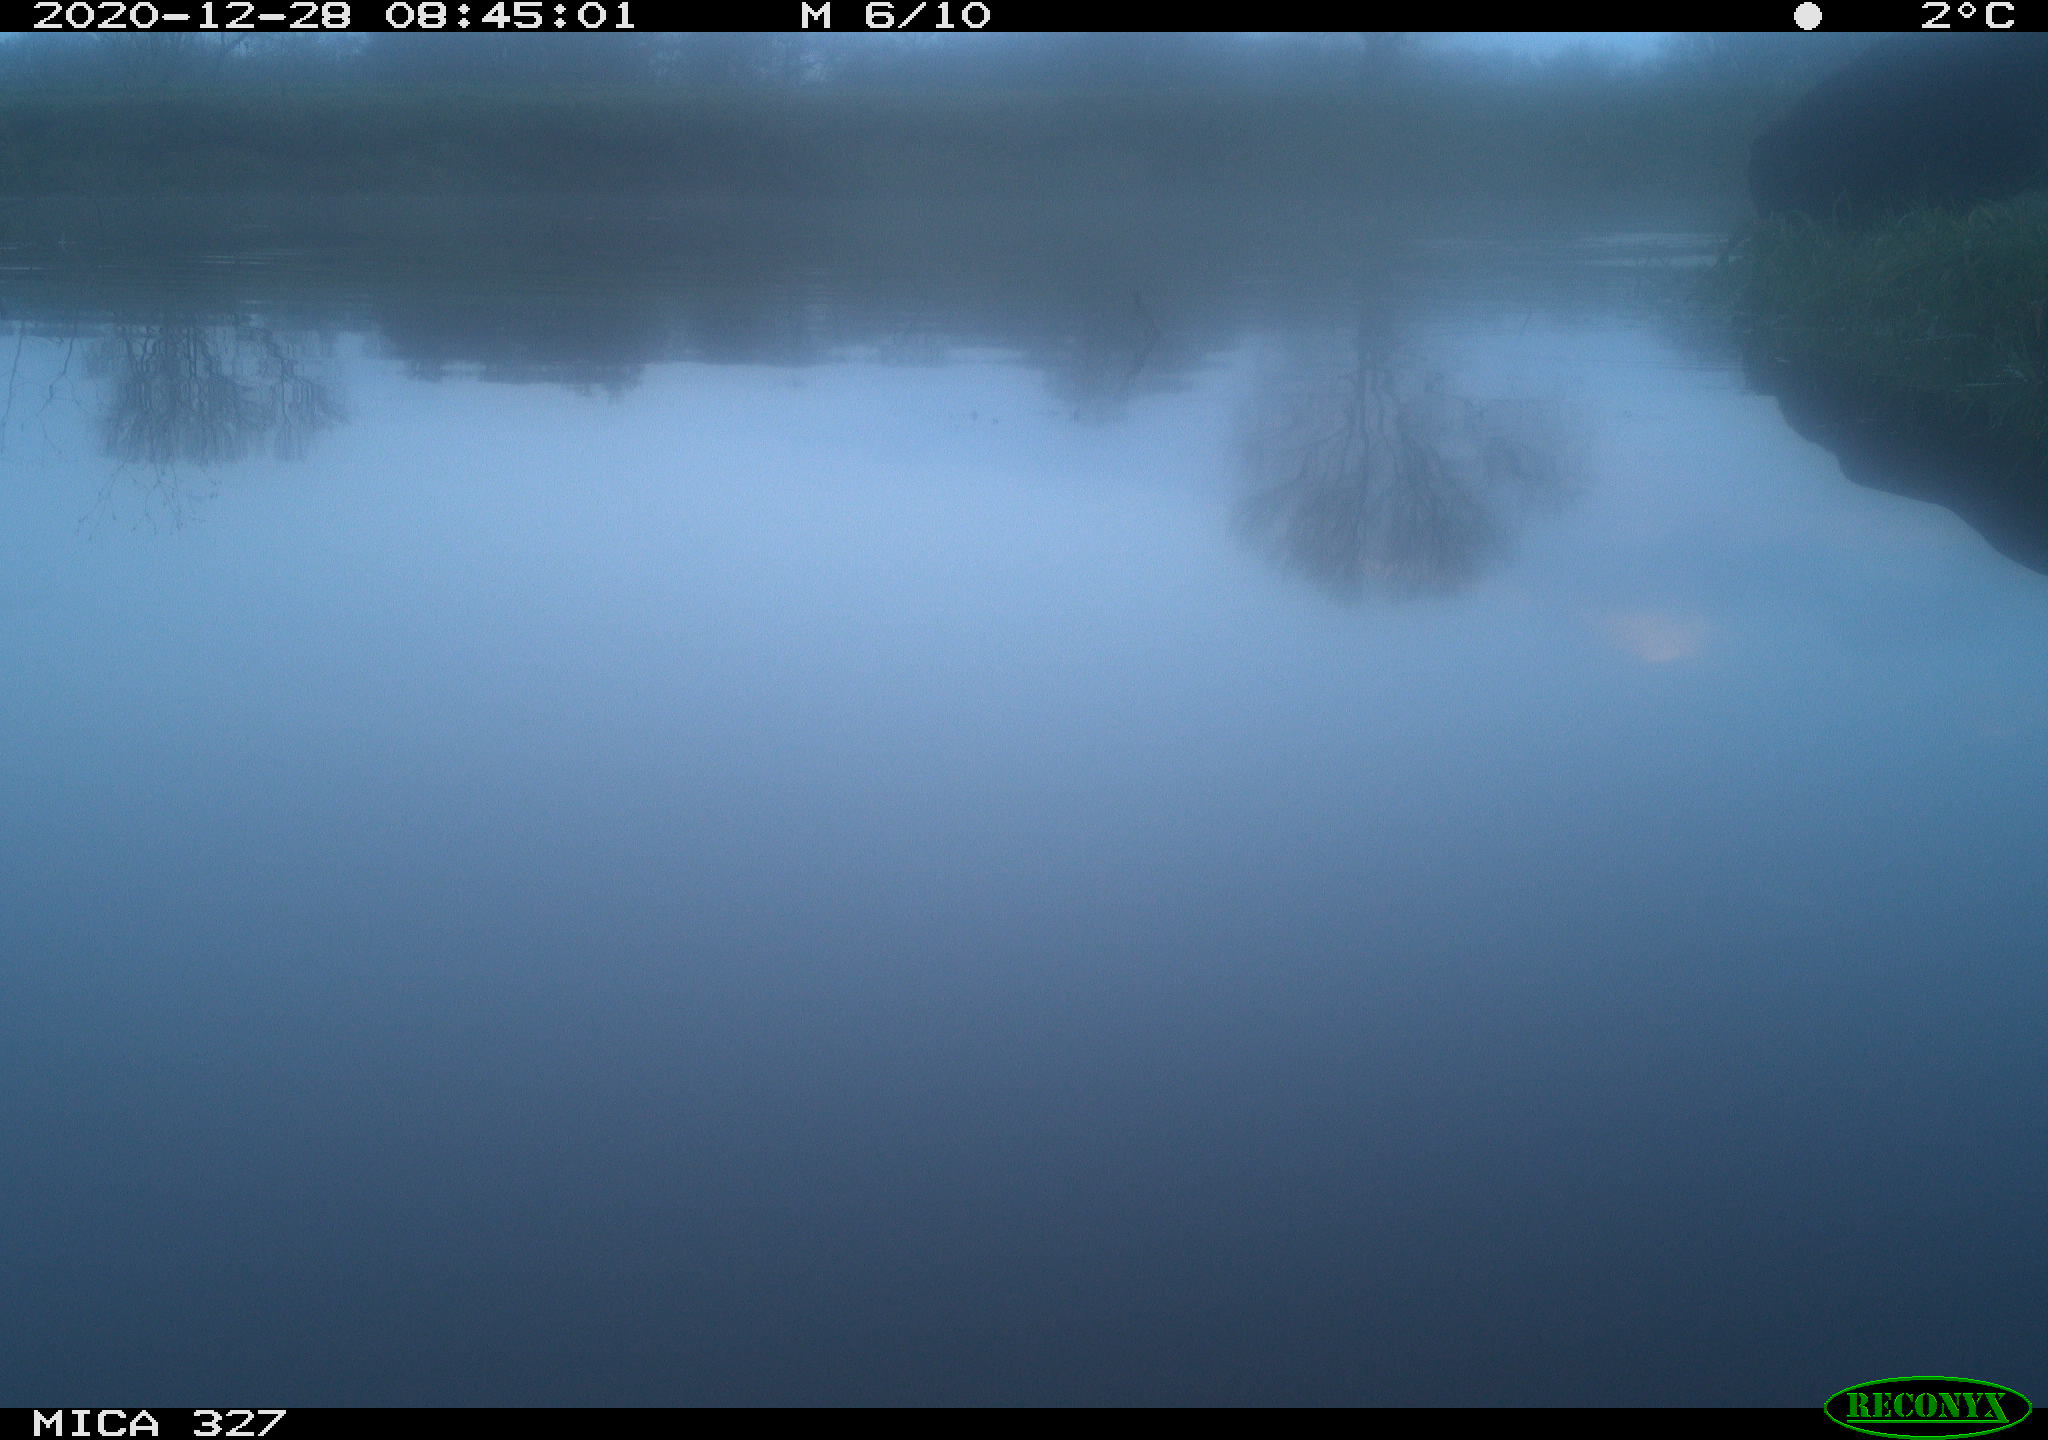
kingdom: Animalia
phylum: Chordata
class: Mammalia
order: Carnivora
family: Canidae
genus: Canis
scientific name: Canis lupus
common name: Gray wolf
